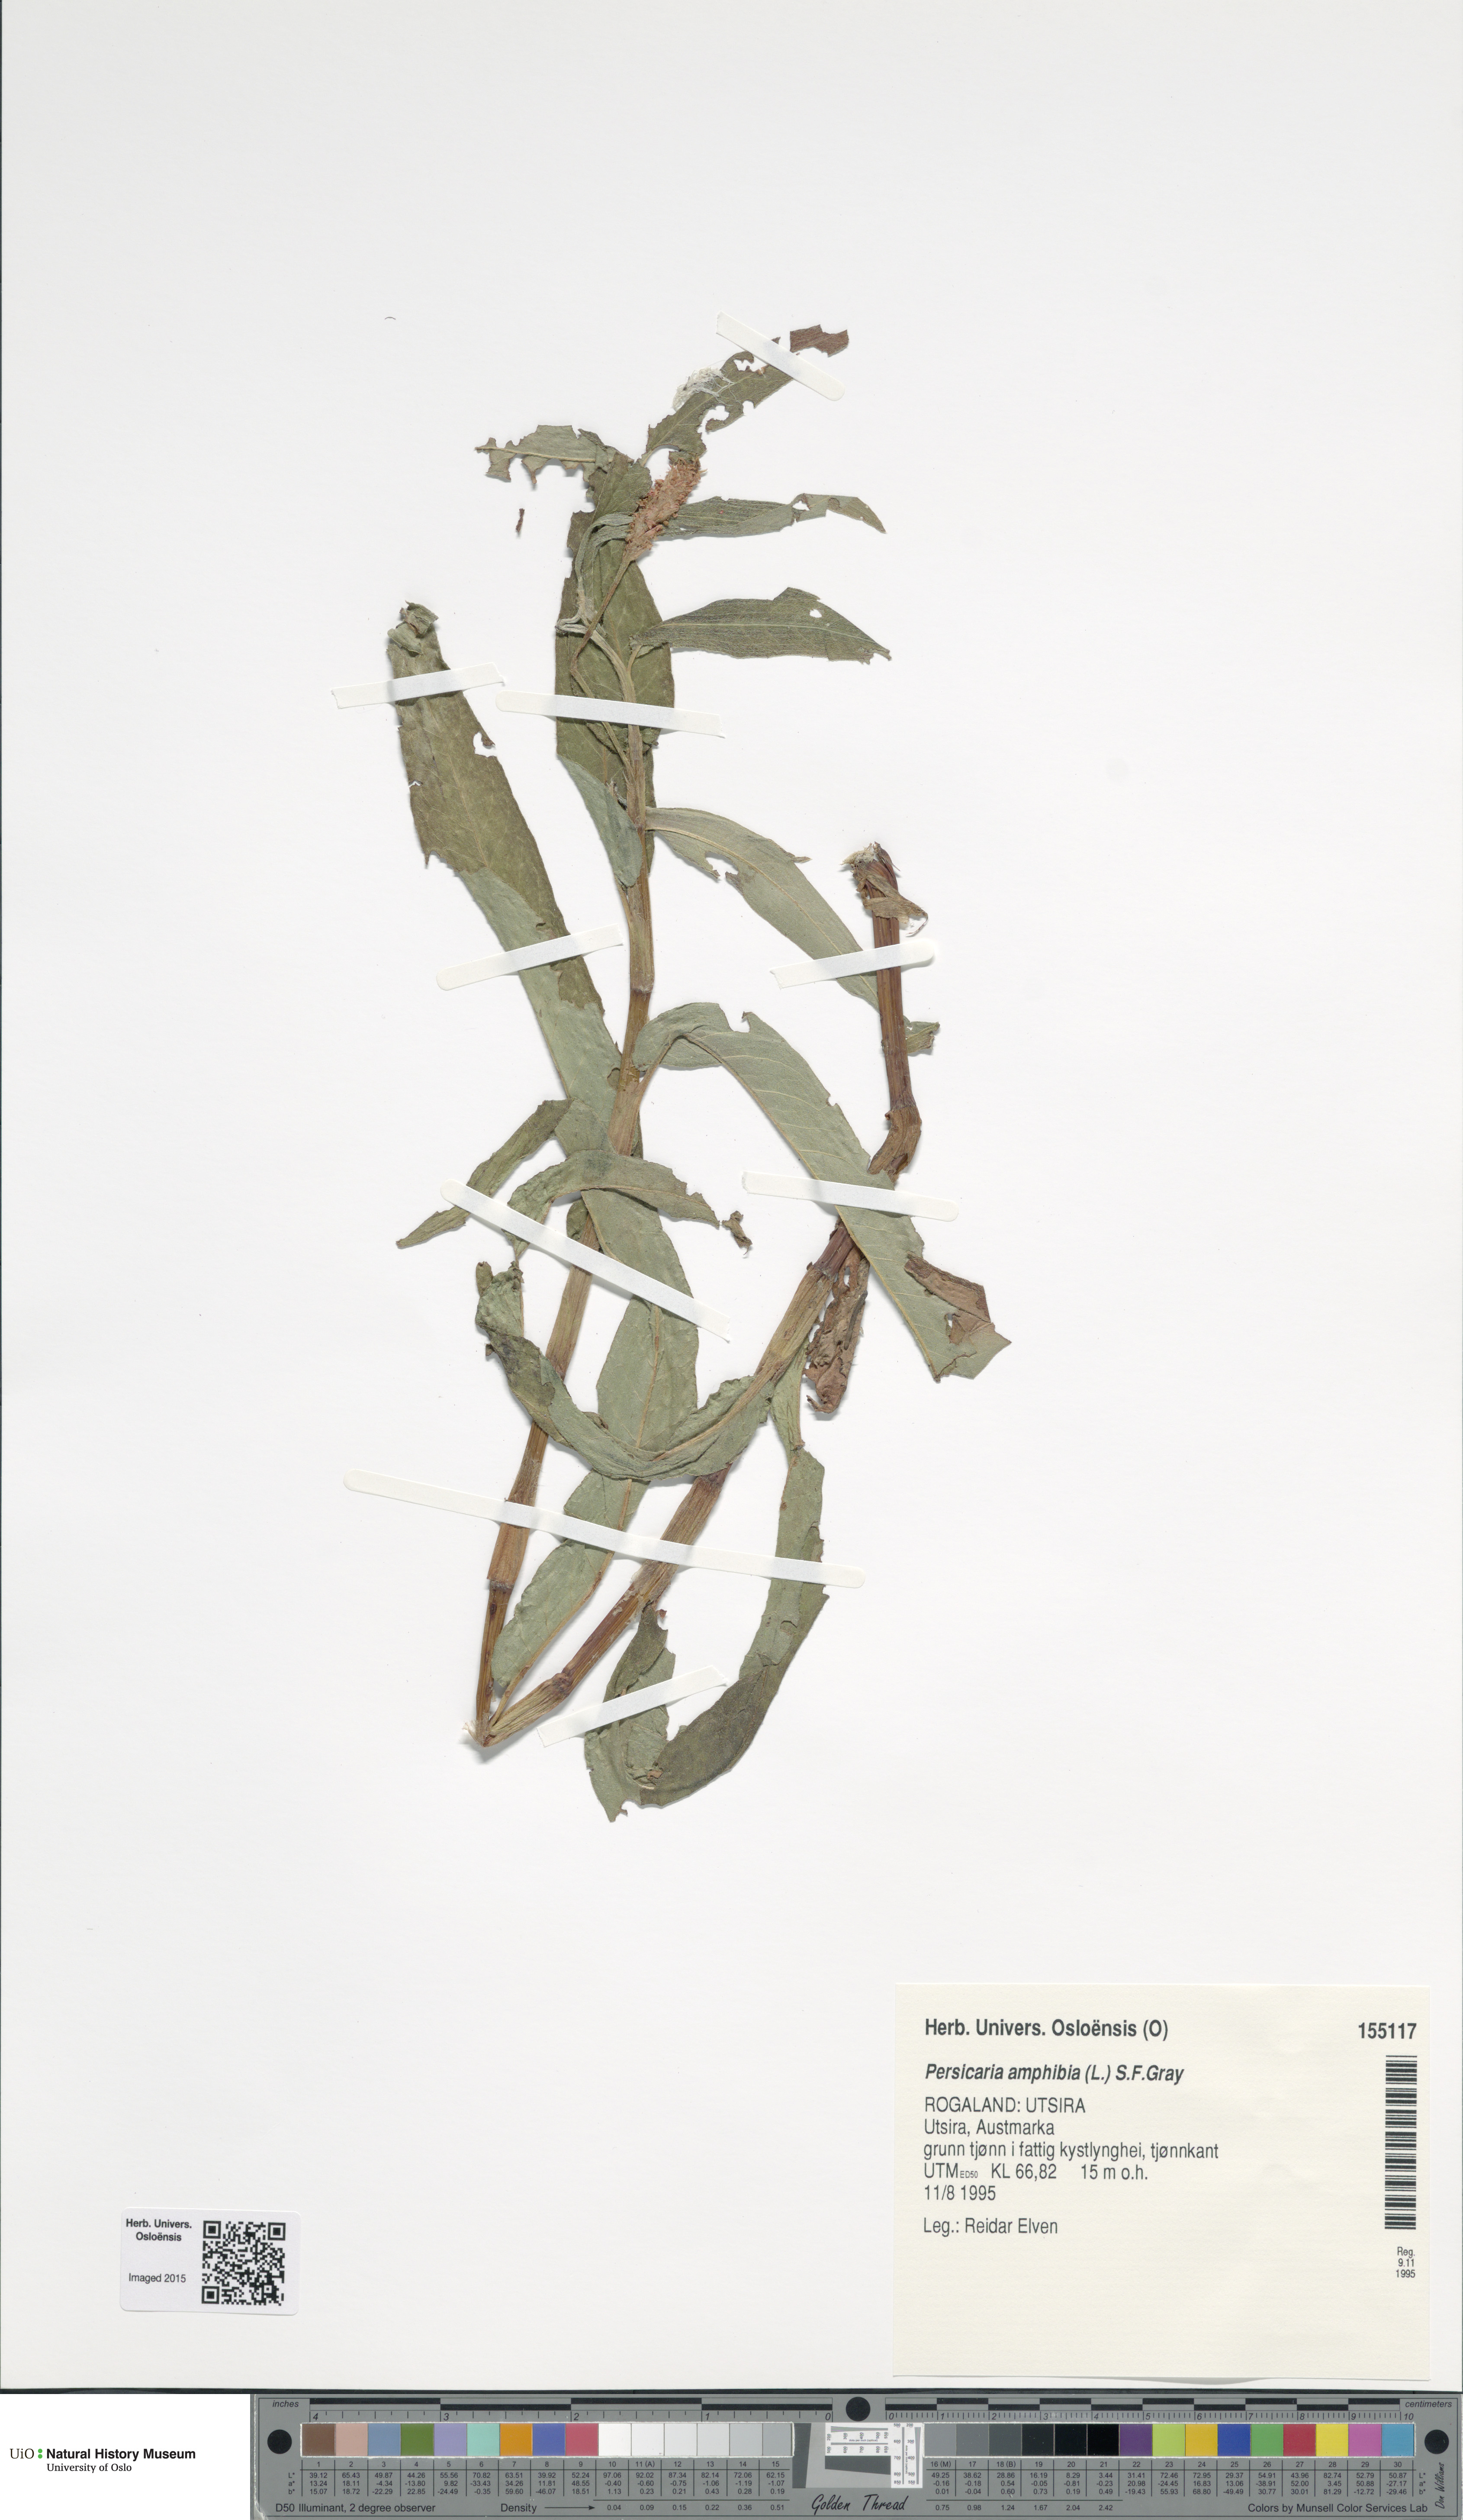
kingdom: Plantae
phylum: Tracheophyta
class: Magnoliopsida
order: Caryophyllales
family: Polygonaceae
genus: Persicaria
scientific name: Persicaria amphibia
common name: Amphibious bistort
